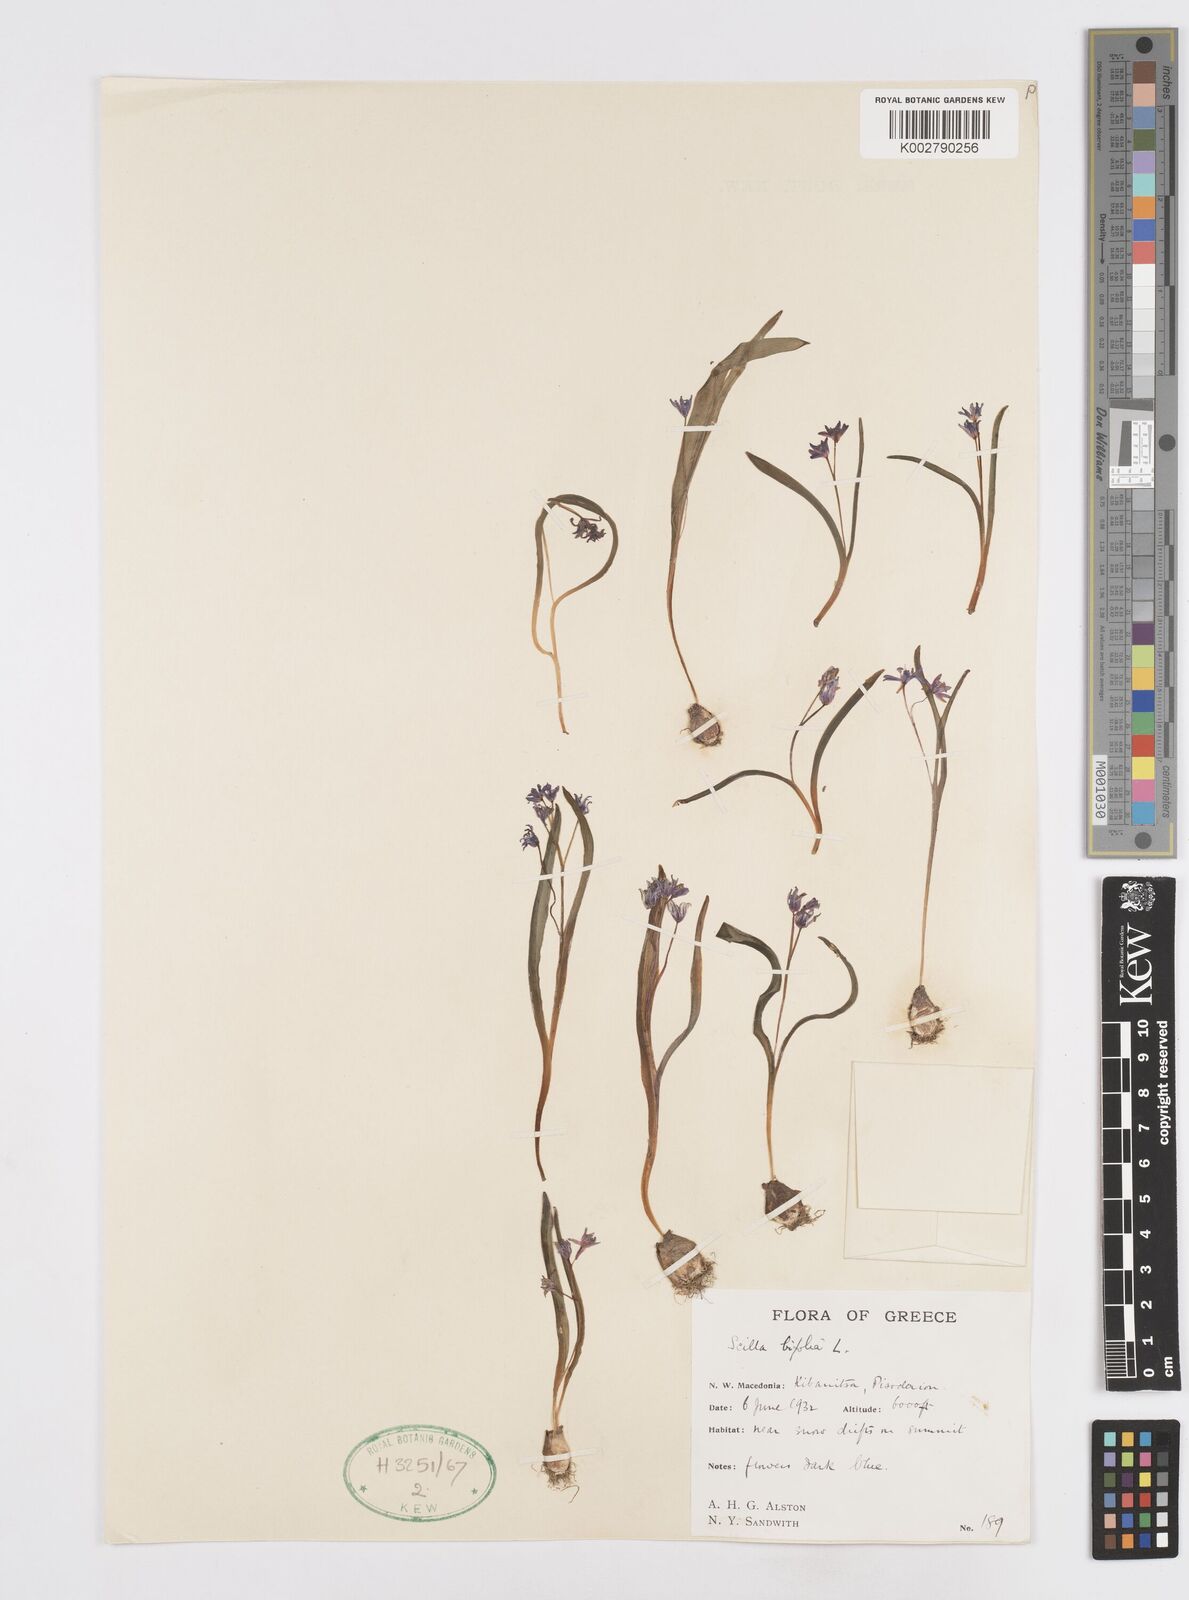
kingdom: Plantae
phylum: Tracheophyta
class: Liliopsida
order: Asparagales
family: Asparagaceae
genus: Scilla
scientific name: Scilla bifolia
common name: Alpine squill
